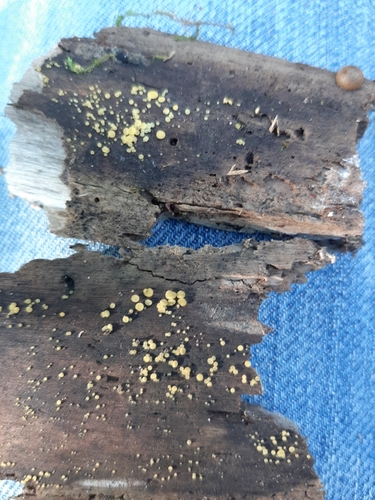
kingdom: Fungi
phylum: Ascomycota
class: Leotiomycetes
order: Helotiales
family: Pezizellaceae
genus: Calycina
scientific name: Calycina citrina
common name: Yellow fairy cups
